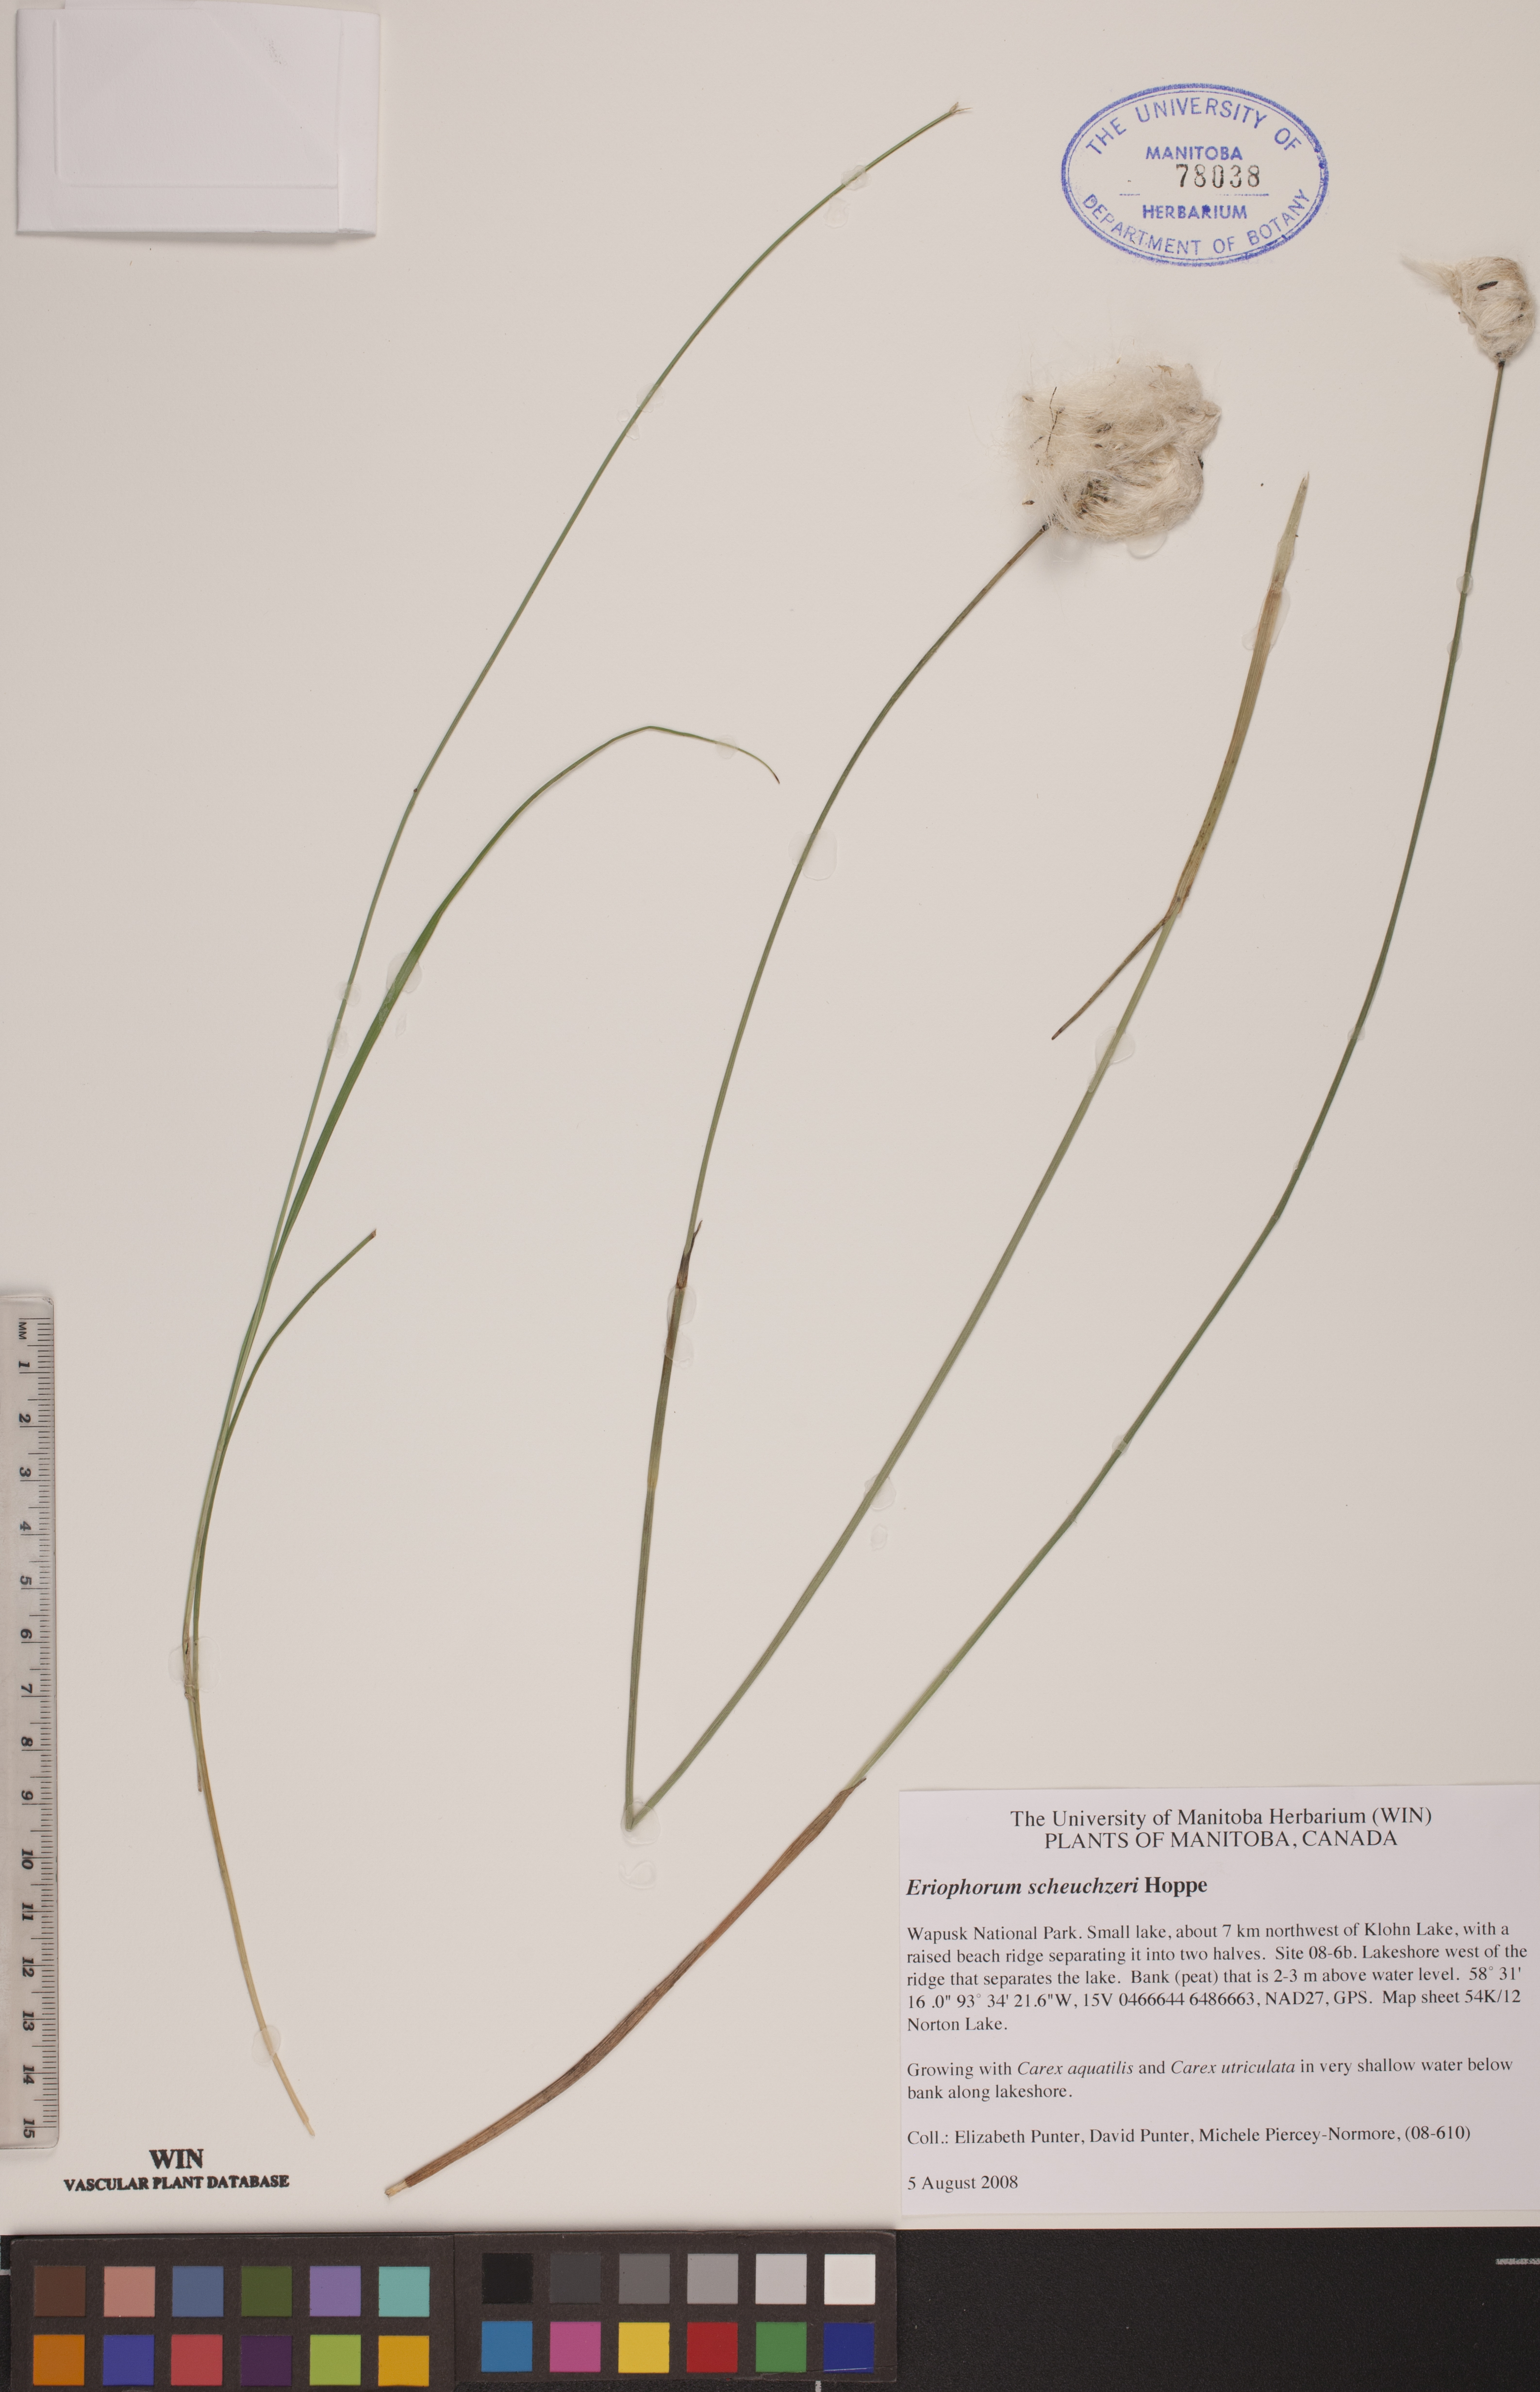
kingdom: Plantae
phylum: Tracheophyta
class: Liliopsida
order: Poales
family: Cyperaceae
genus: Eriophorum
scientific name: Eriophorum scheuchzeri
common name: Scheuchzer's cottongrass
